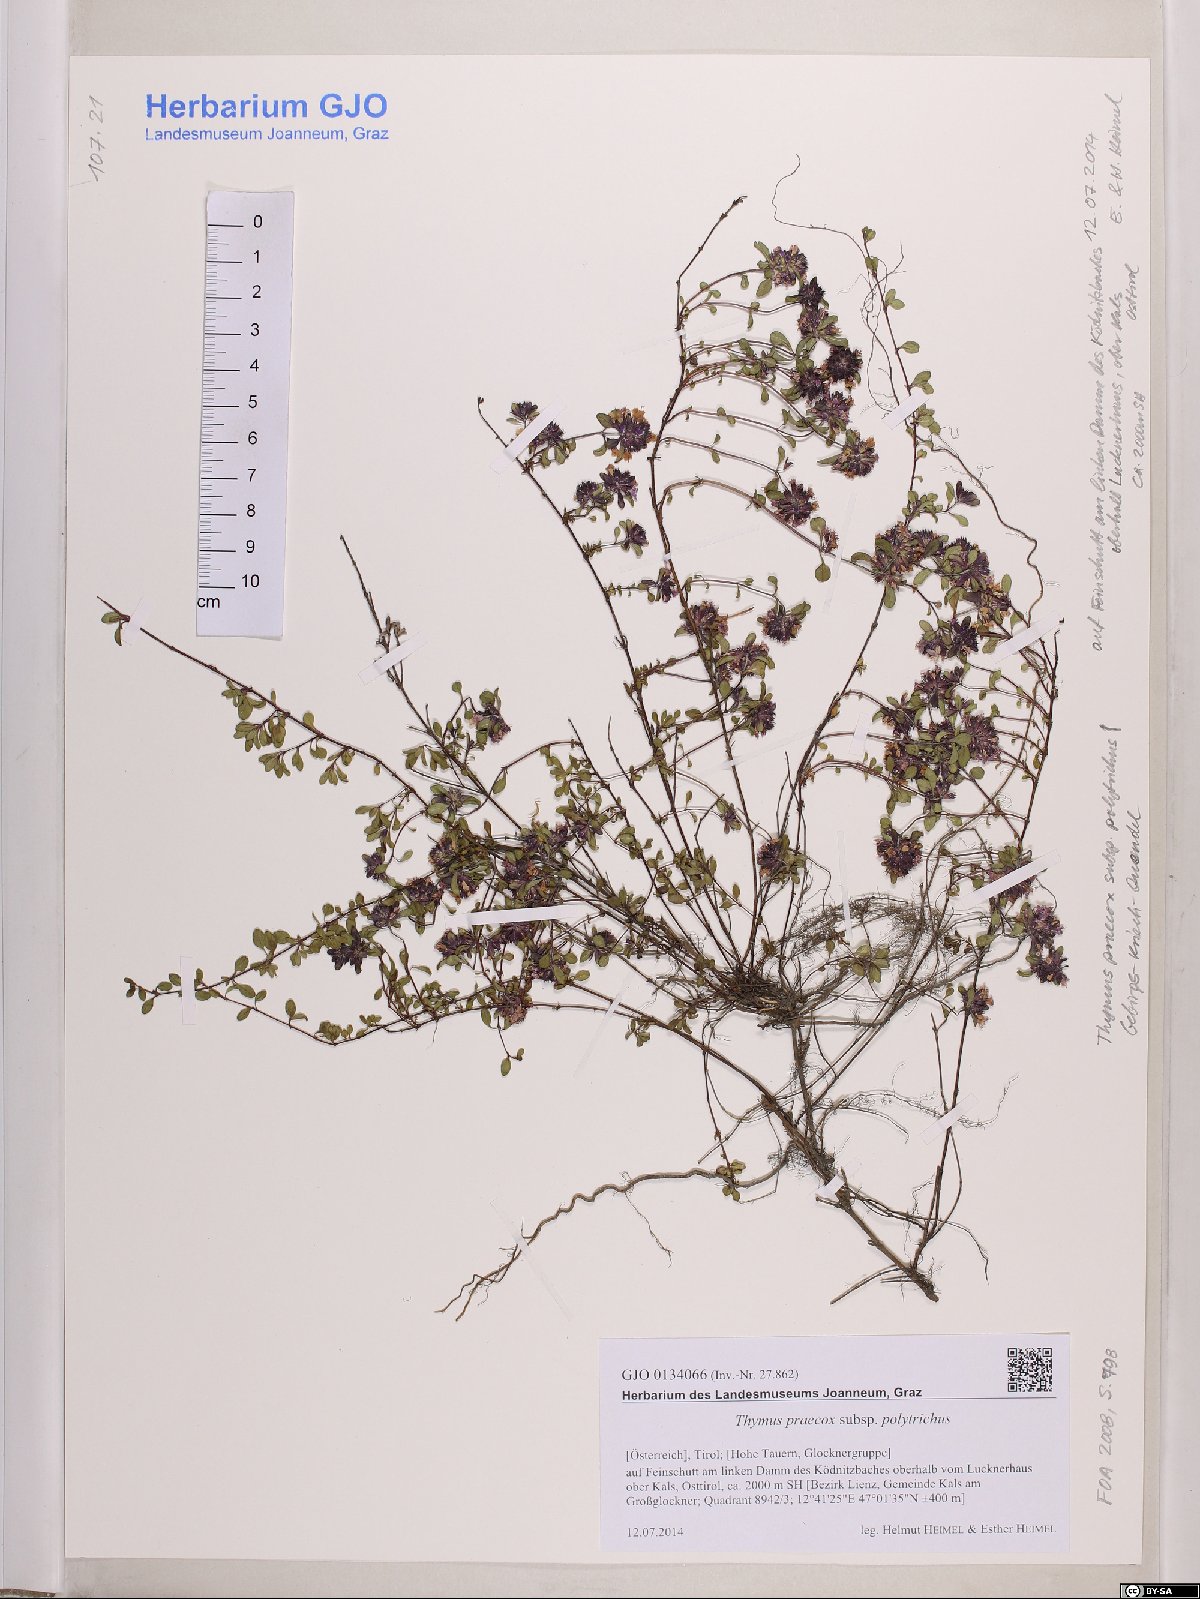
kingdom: Plantae
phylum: Tracheophyta
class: Magnoliopsida
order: Lamiales
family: Lamiaceae
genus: Thymus
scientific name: Thymus praecox
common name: Wild thyme
